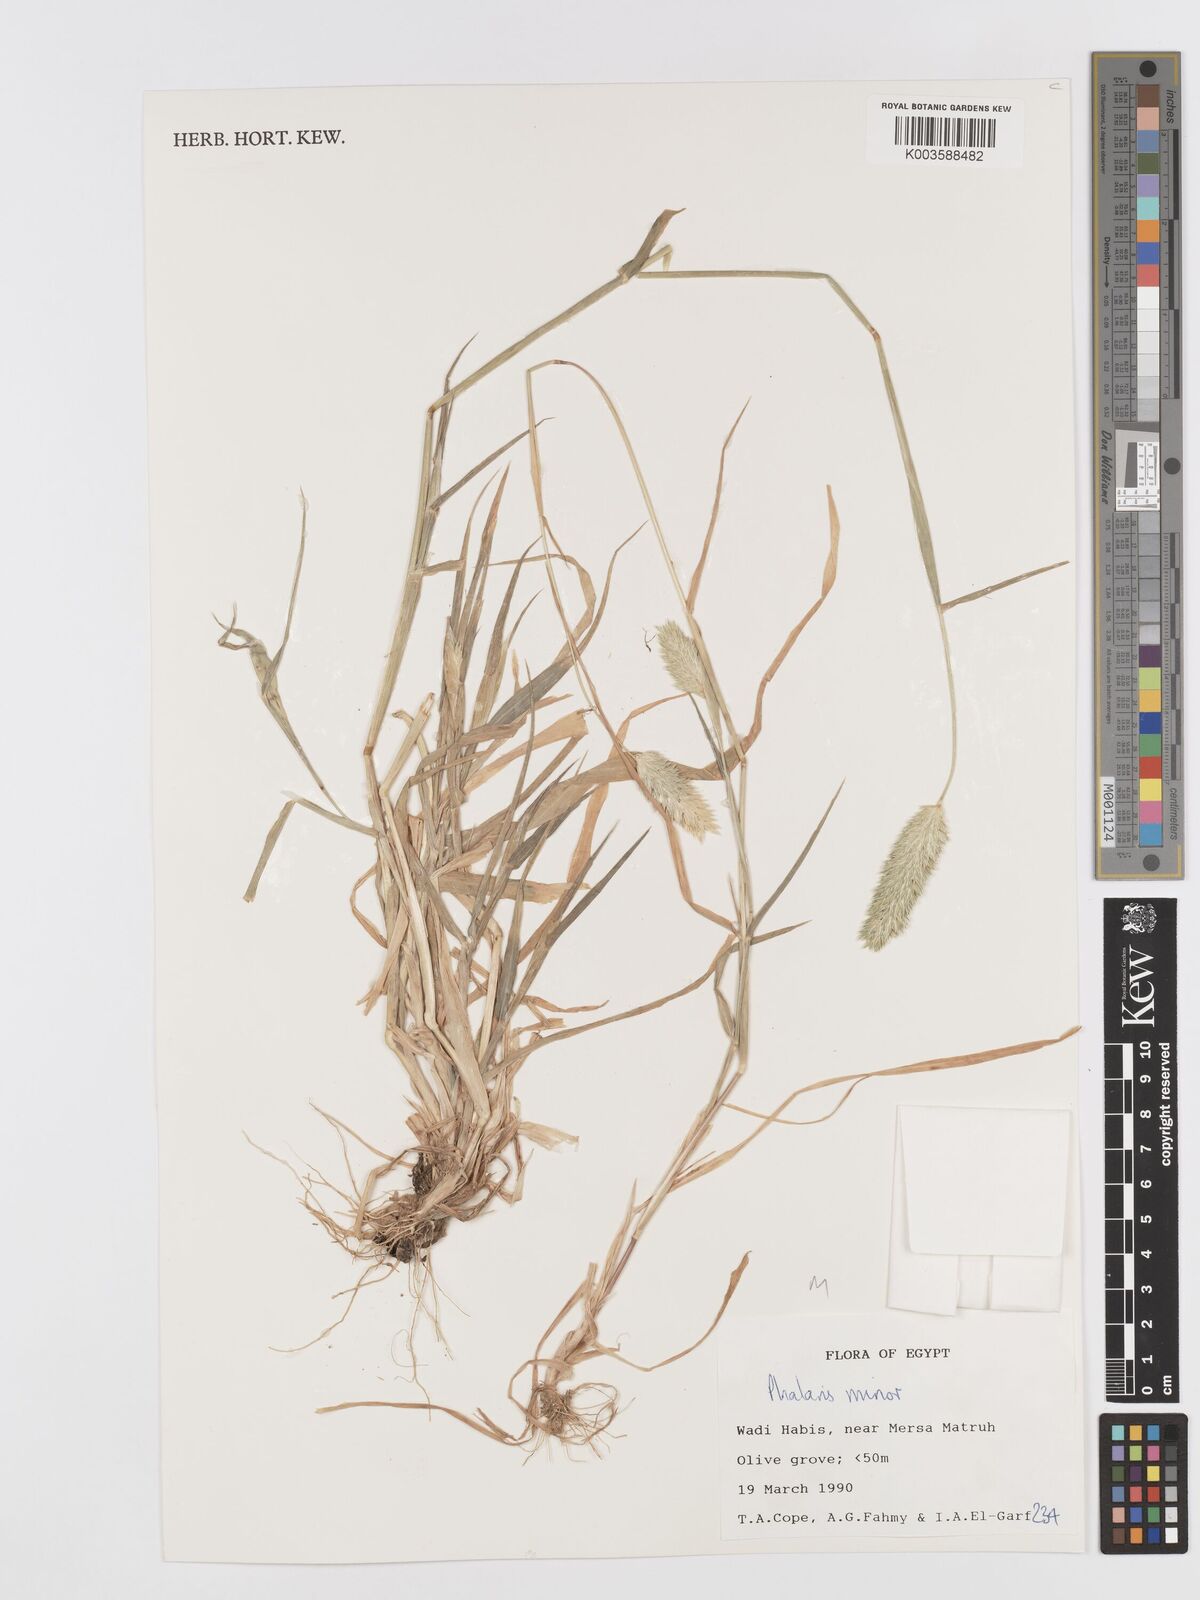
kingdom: Plantae
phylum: Tracheophyta
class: Liliopsida
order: Poales
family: Poaceae
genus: Phalaris
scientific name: Phalaris minor
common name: Littleseed canarygrass
